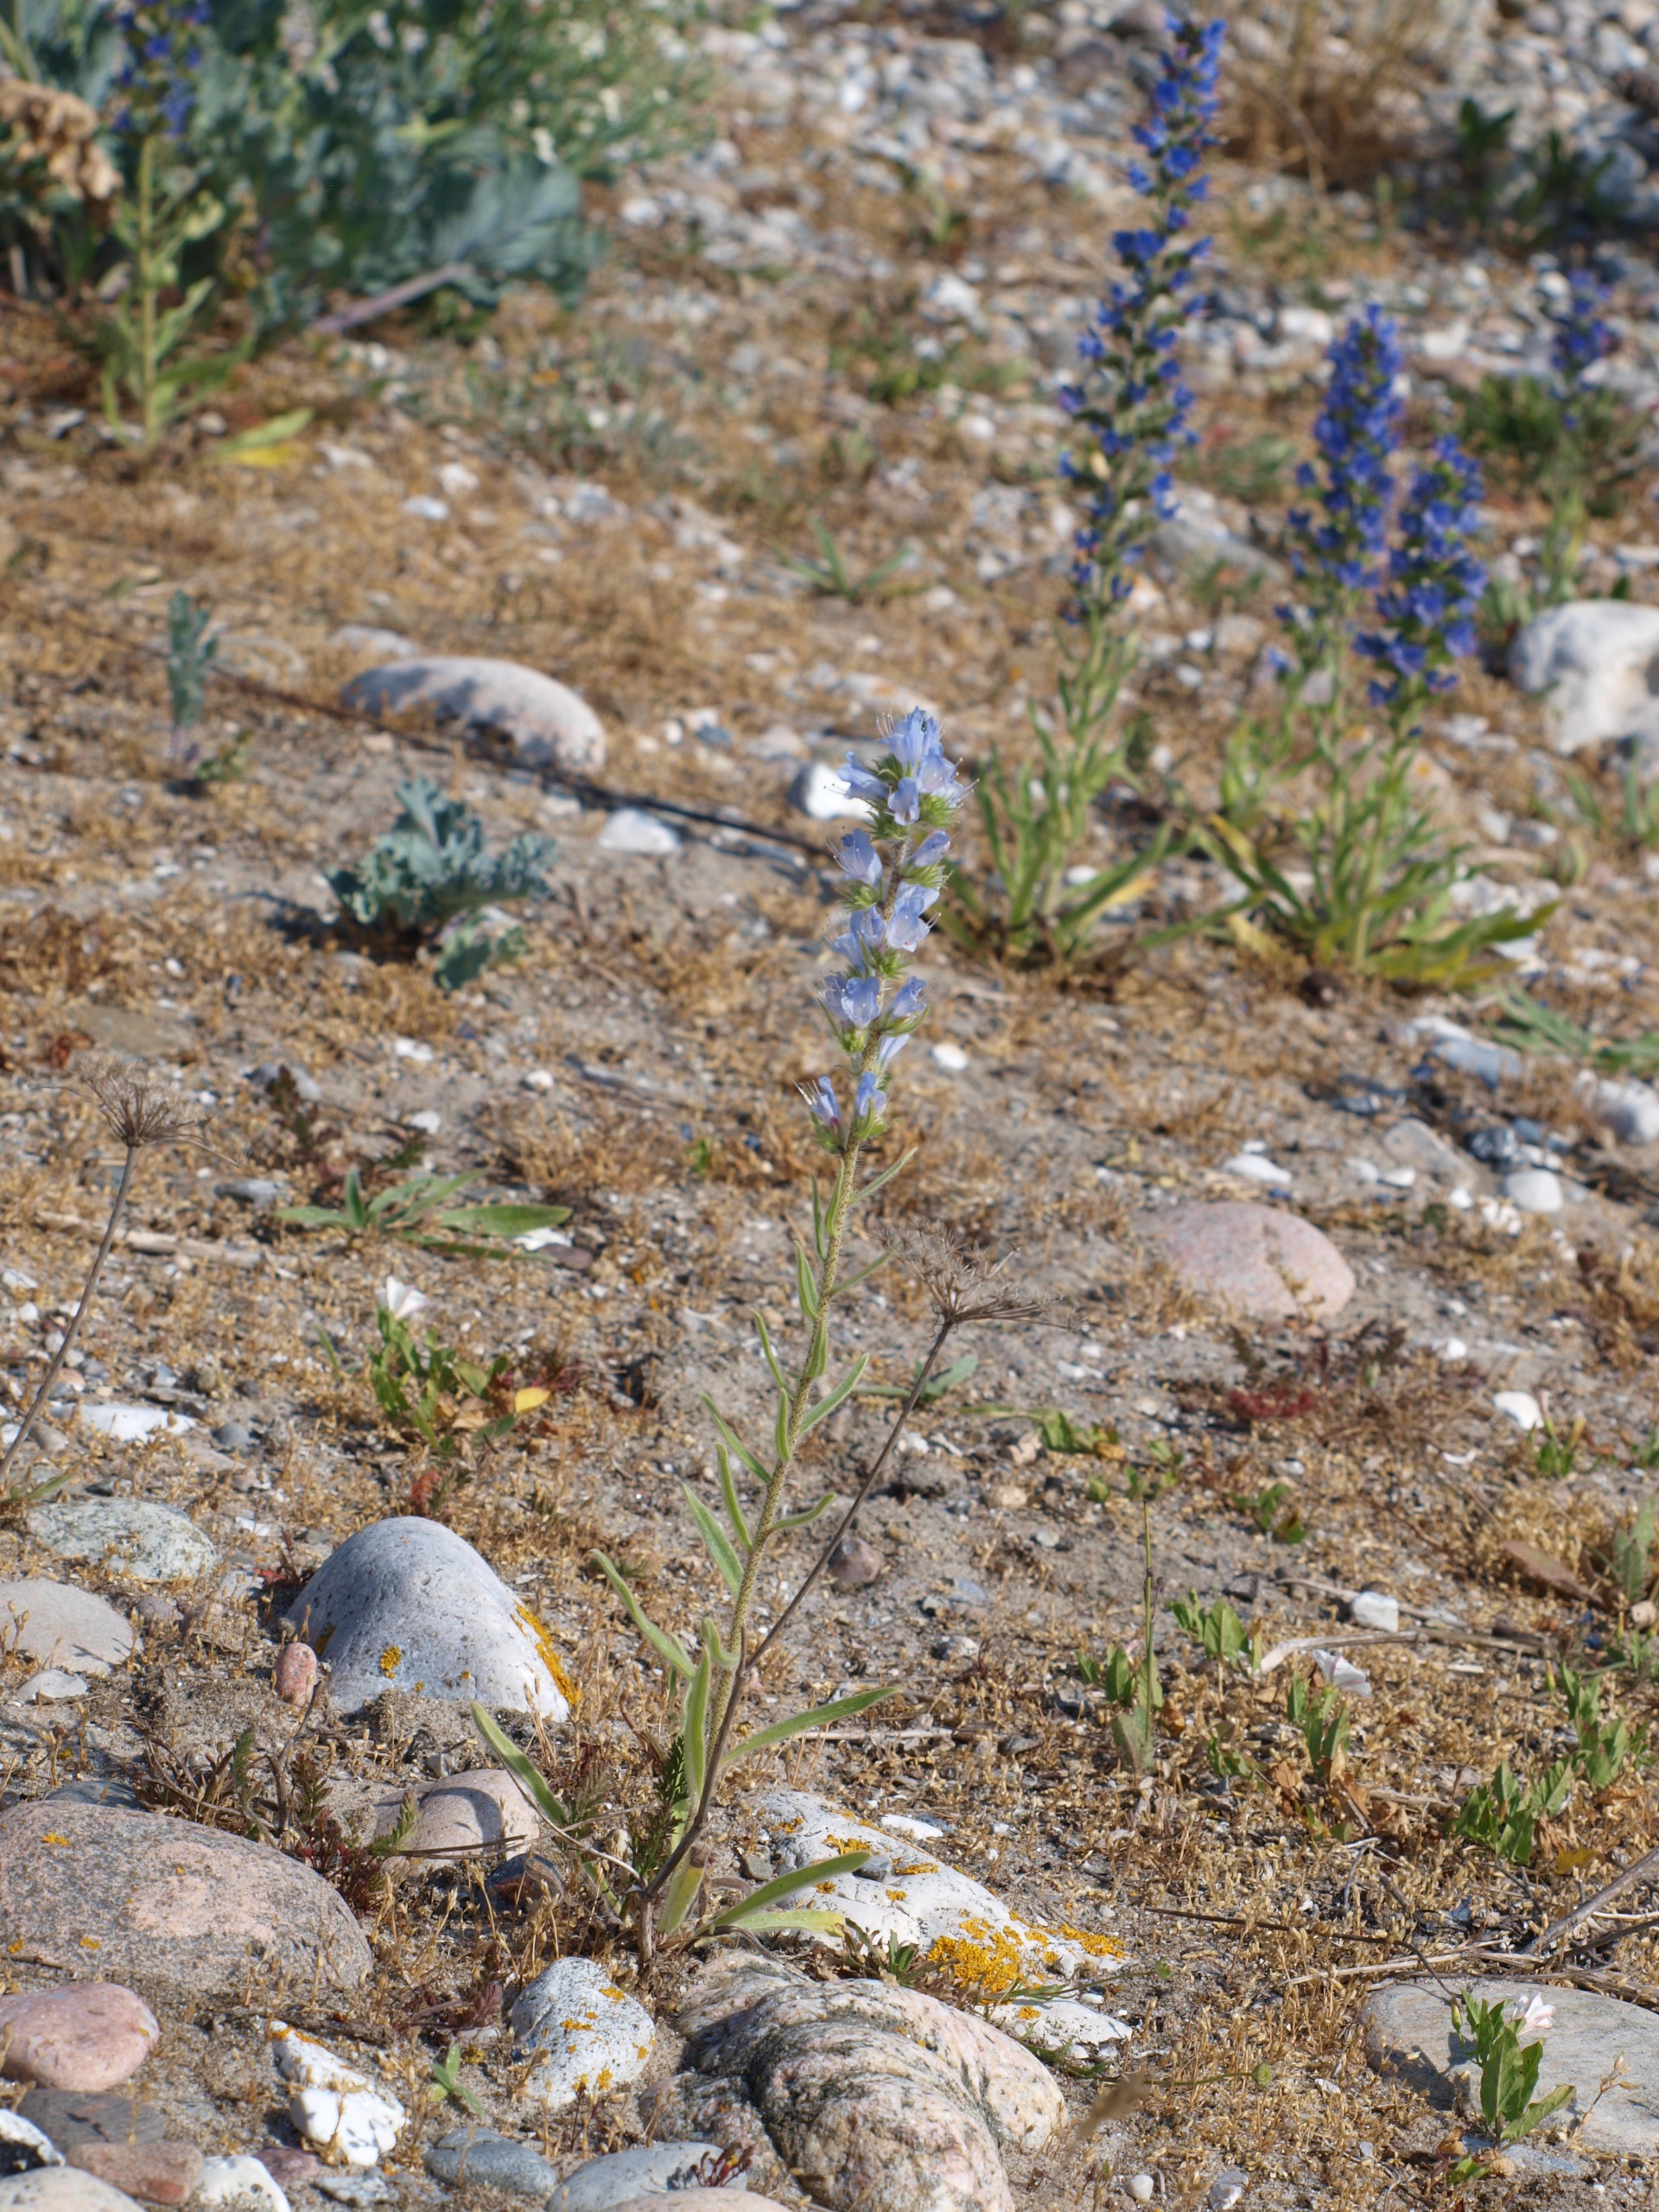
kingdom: Plantae
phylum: Tracheophyta
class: Magnoliopsida
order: Boraginales
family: Boraginaceae
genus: Echium
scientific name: Echium vulgare
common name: Slangehoved
